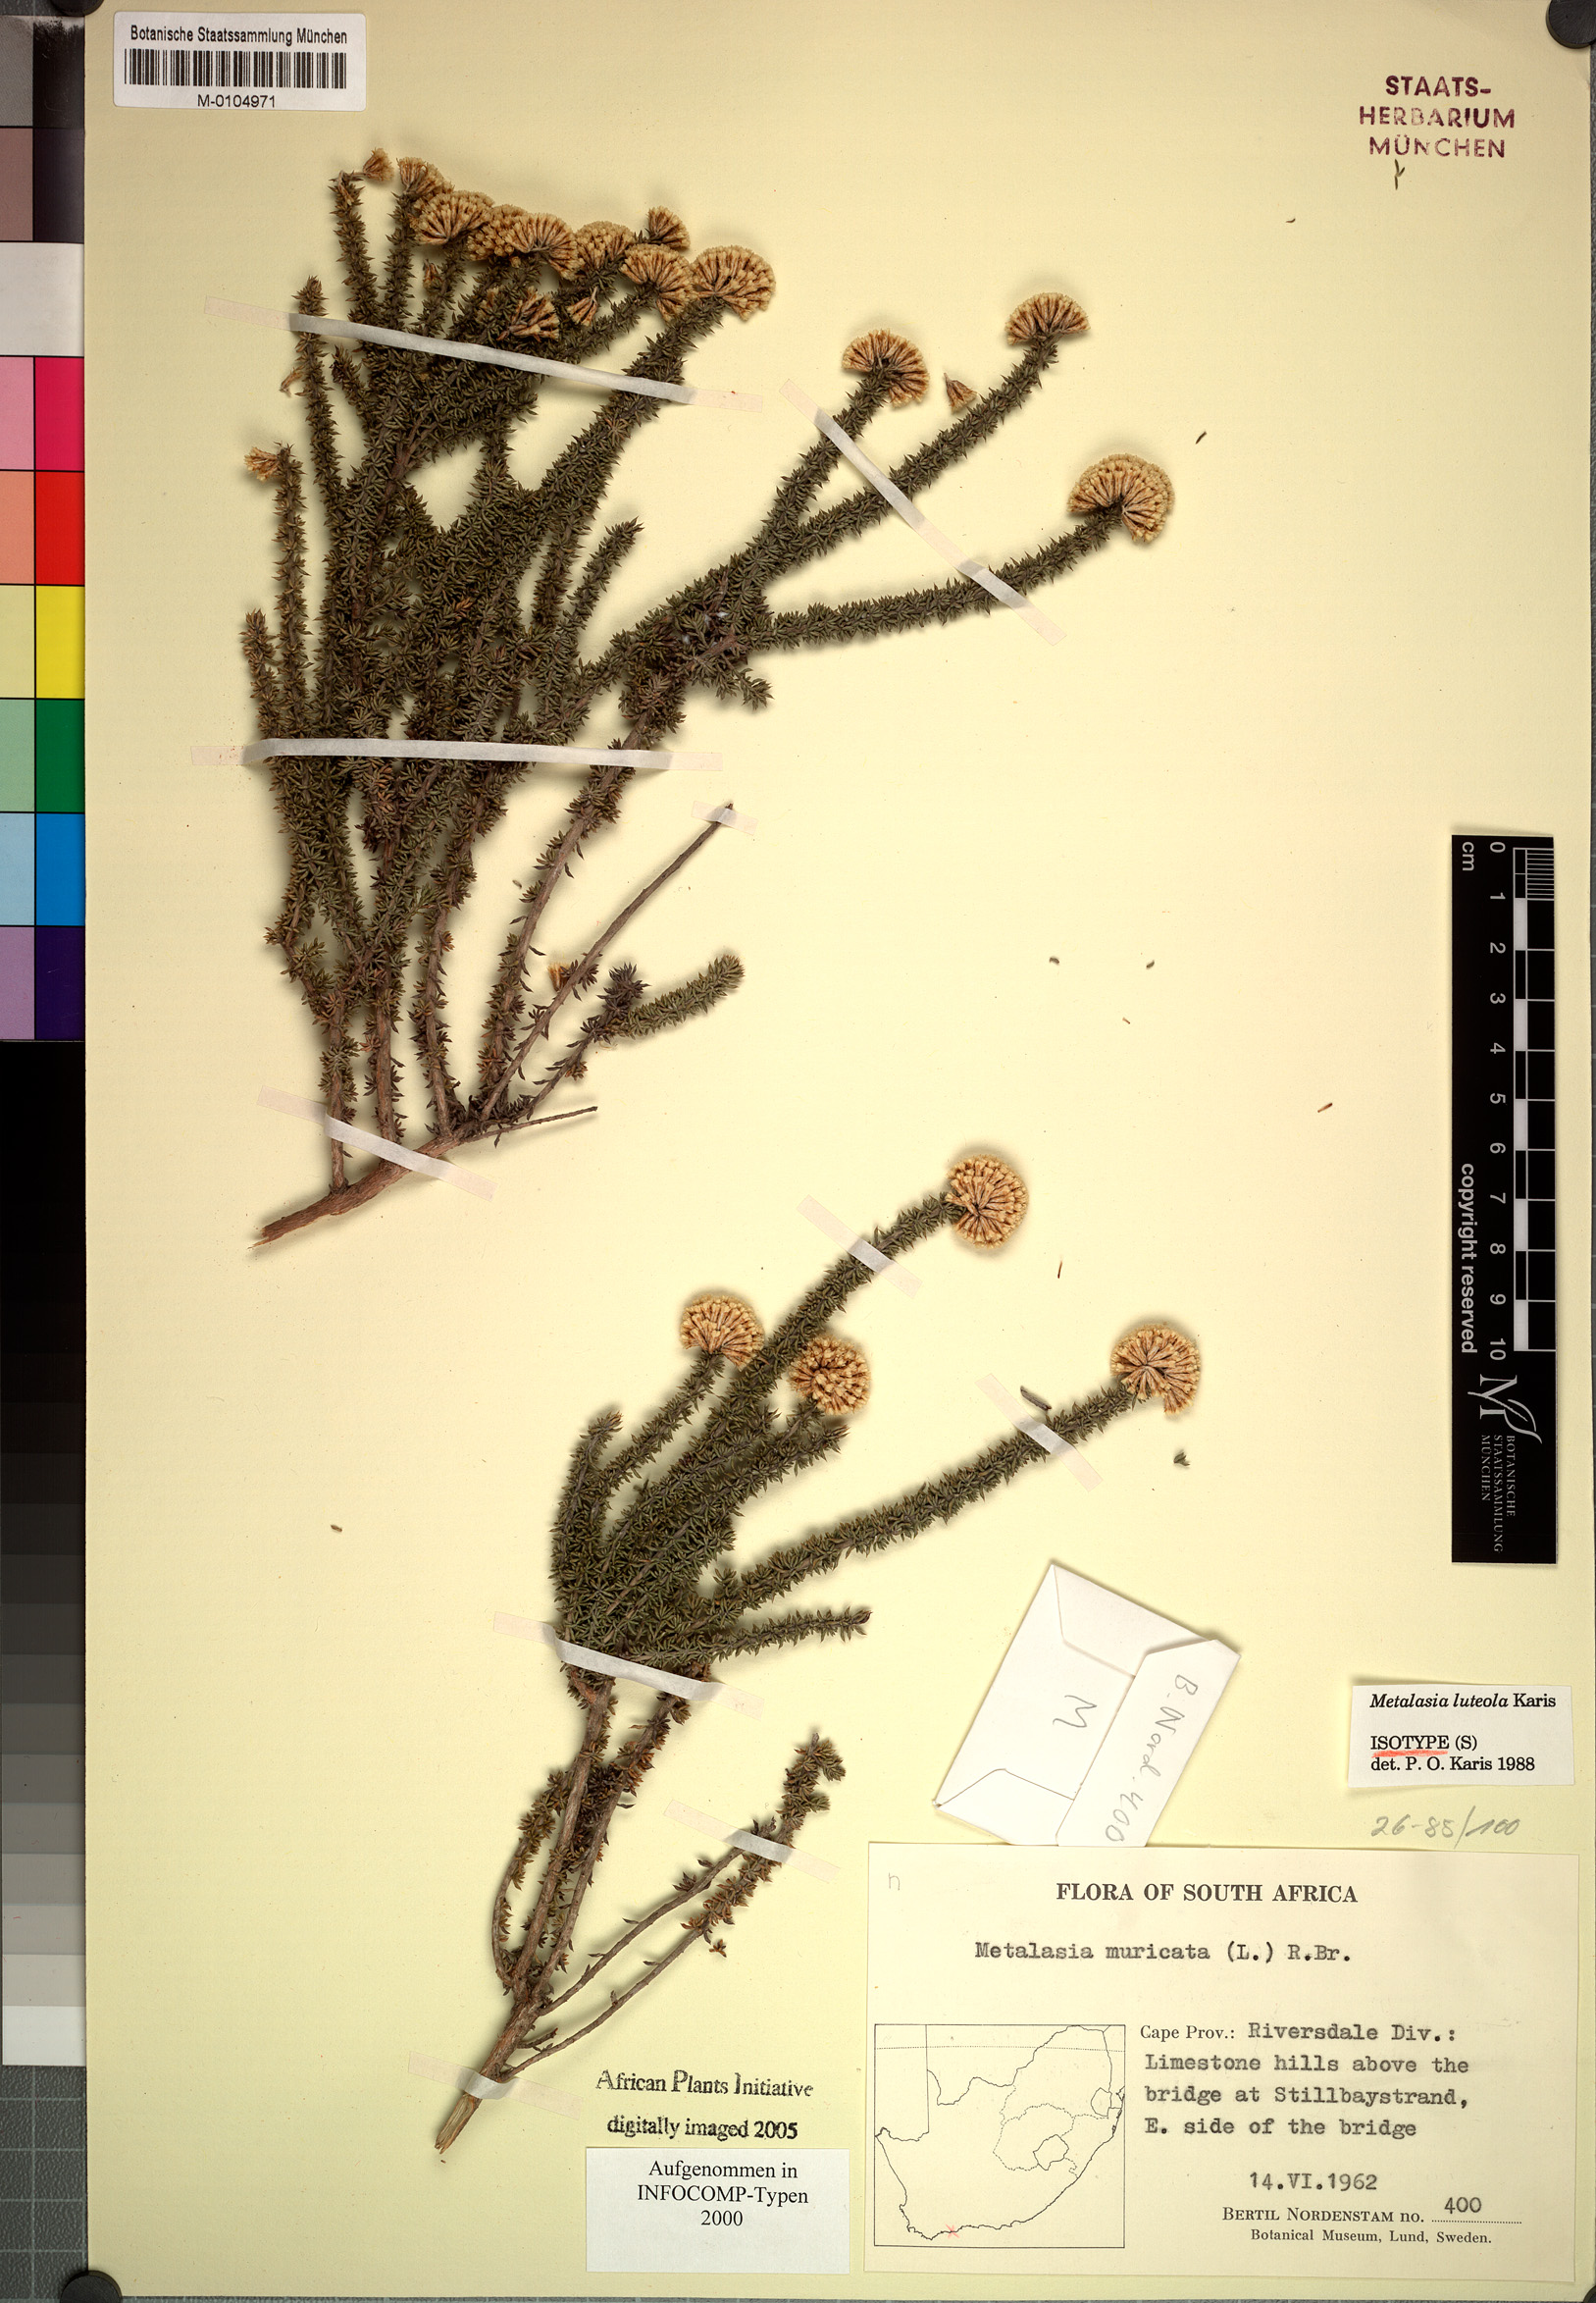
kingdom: Plantae
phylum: Tracheophyta
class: Magnoliopsida
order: Asterales
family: Asteraceae
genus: Metalasia
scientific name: Metalasia luteola
